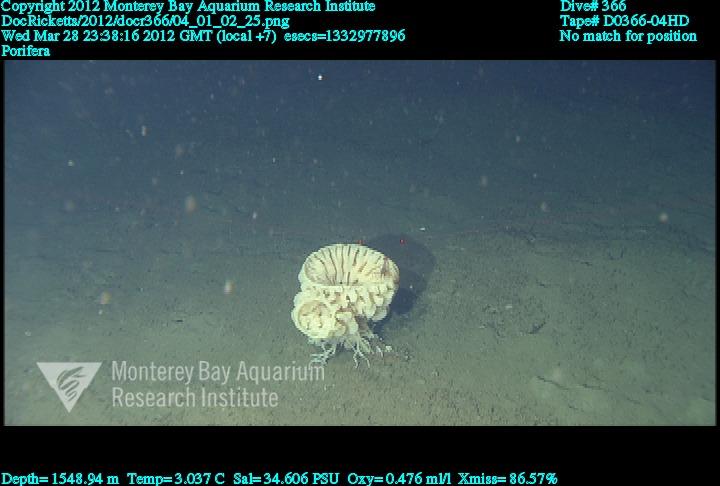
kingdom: Animalia
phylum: Porifera
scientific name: Porifera
